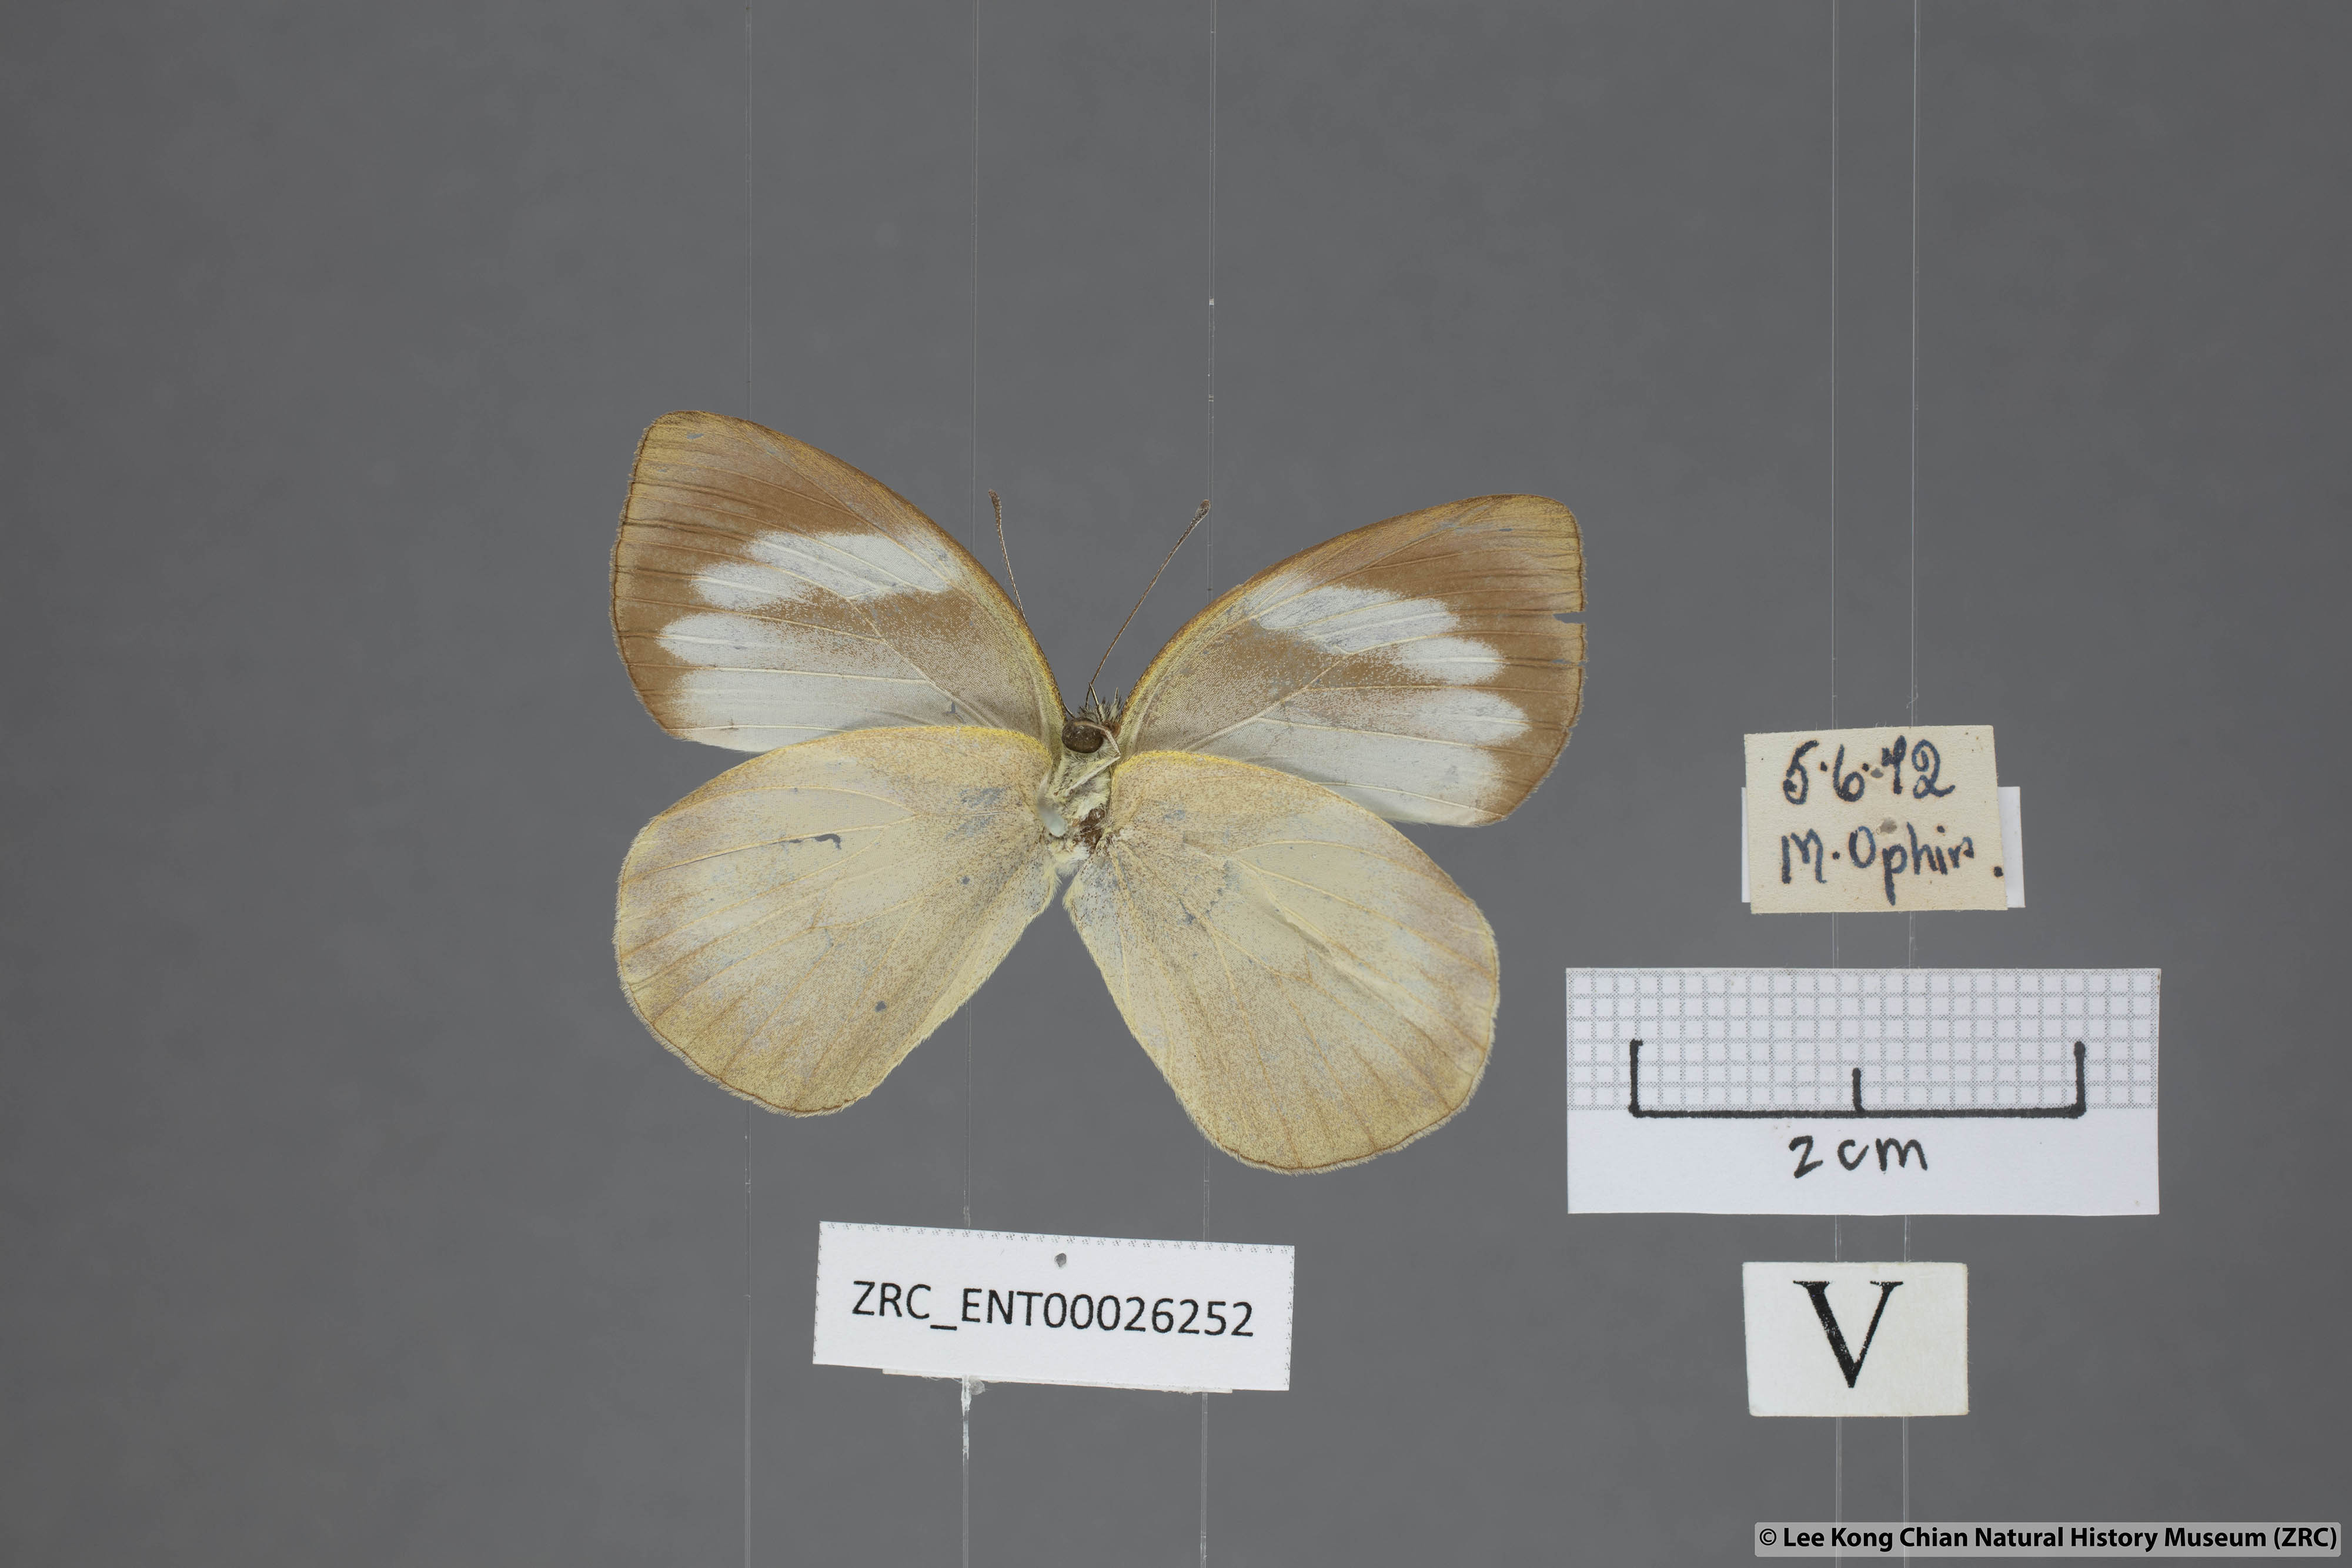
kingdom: Animalia
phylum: Arthropoda
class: Insecta
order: Lepidoptera
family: Pieridae
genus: Phrissura
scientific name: Phrissura aegis
